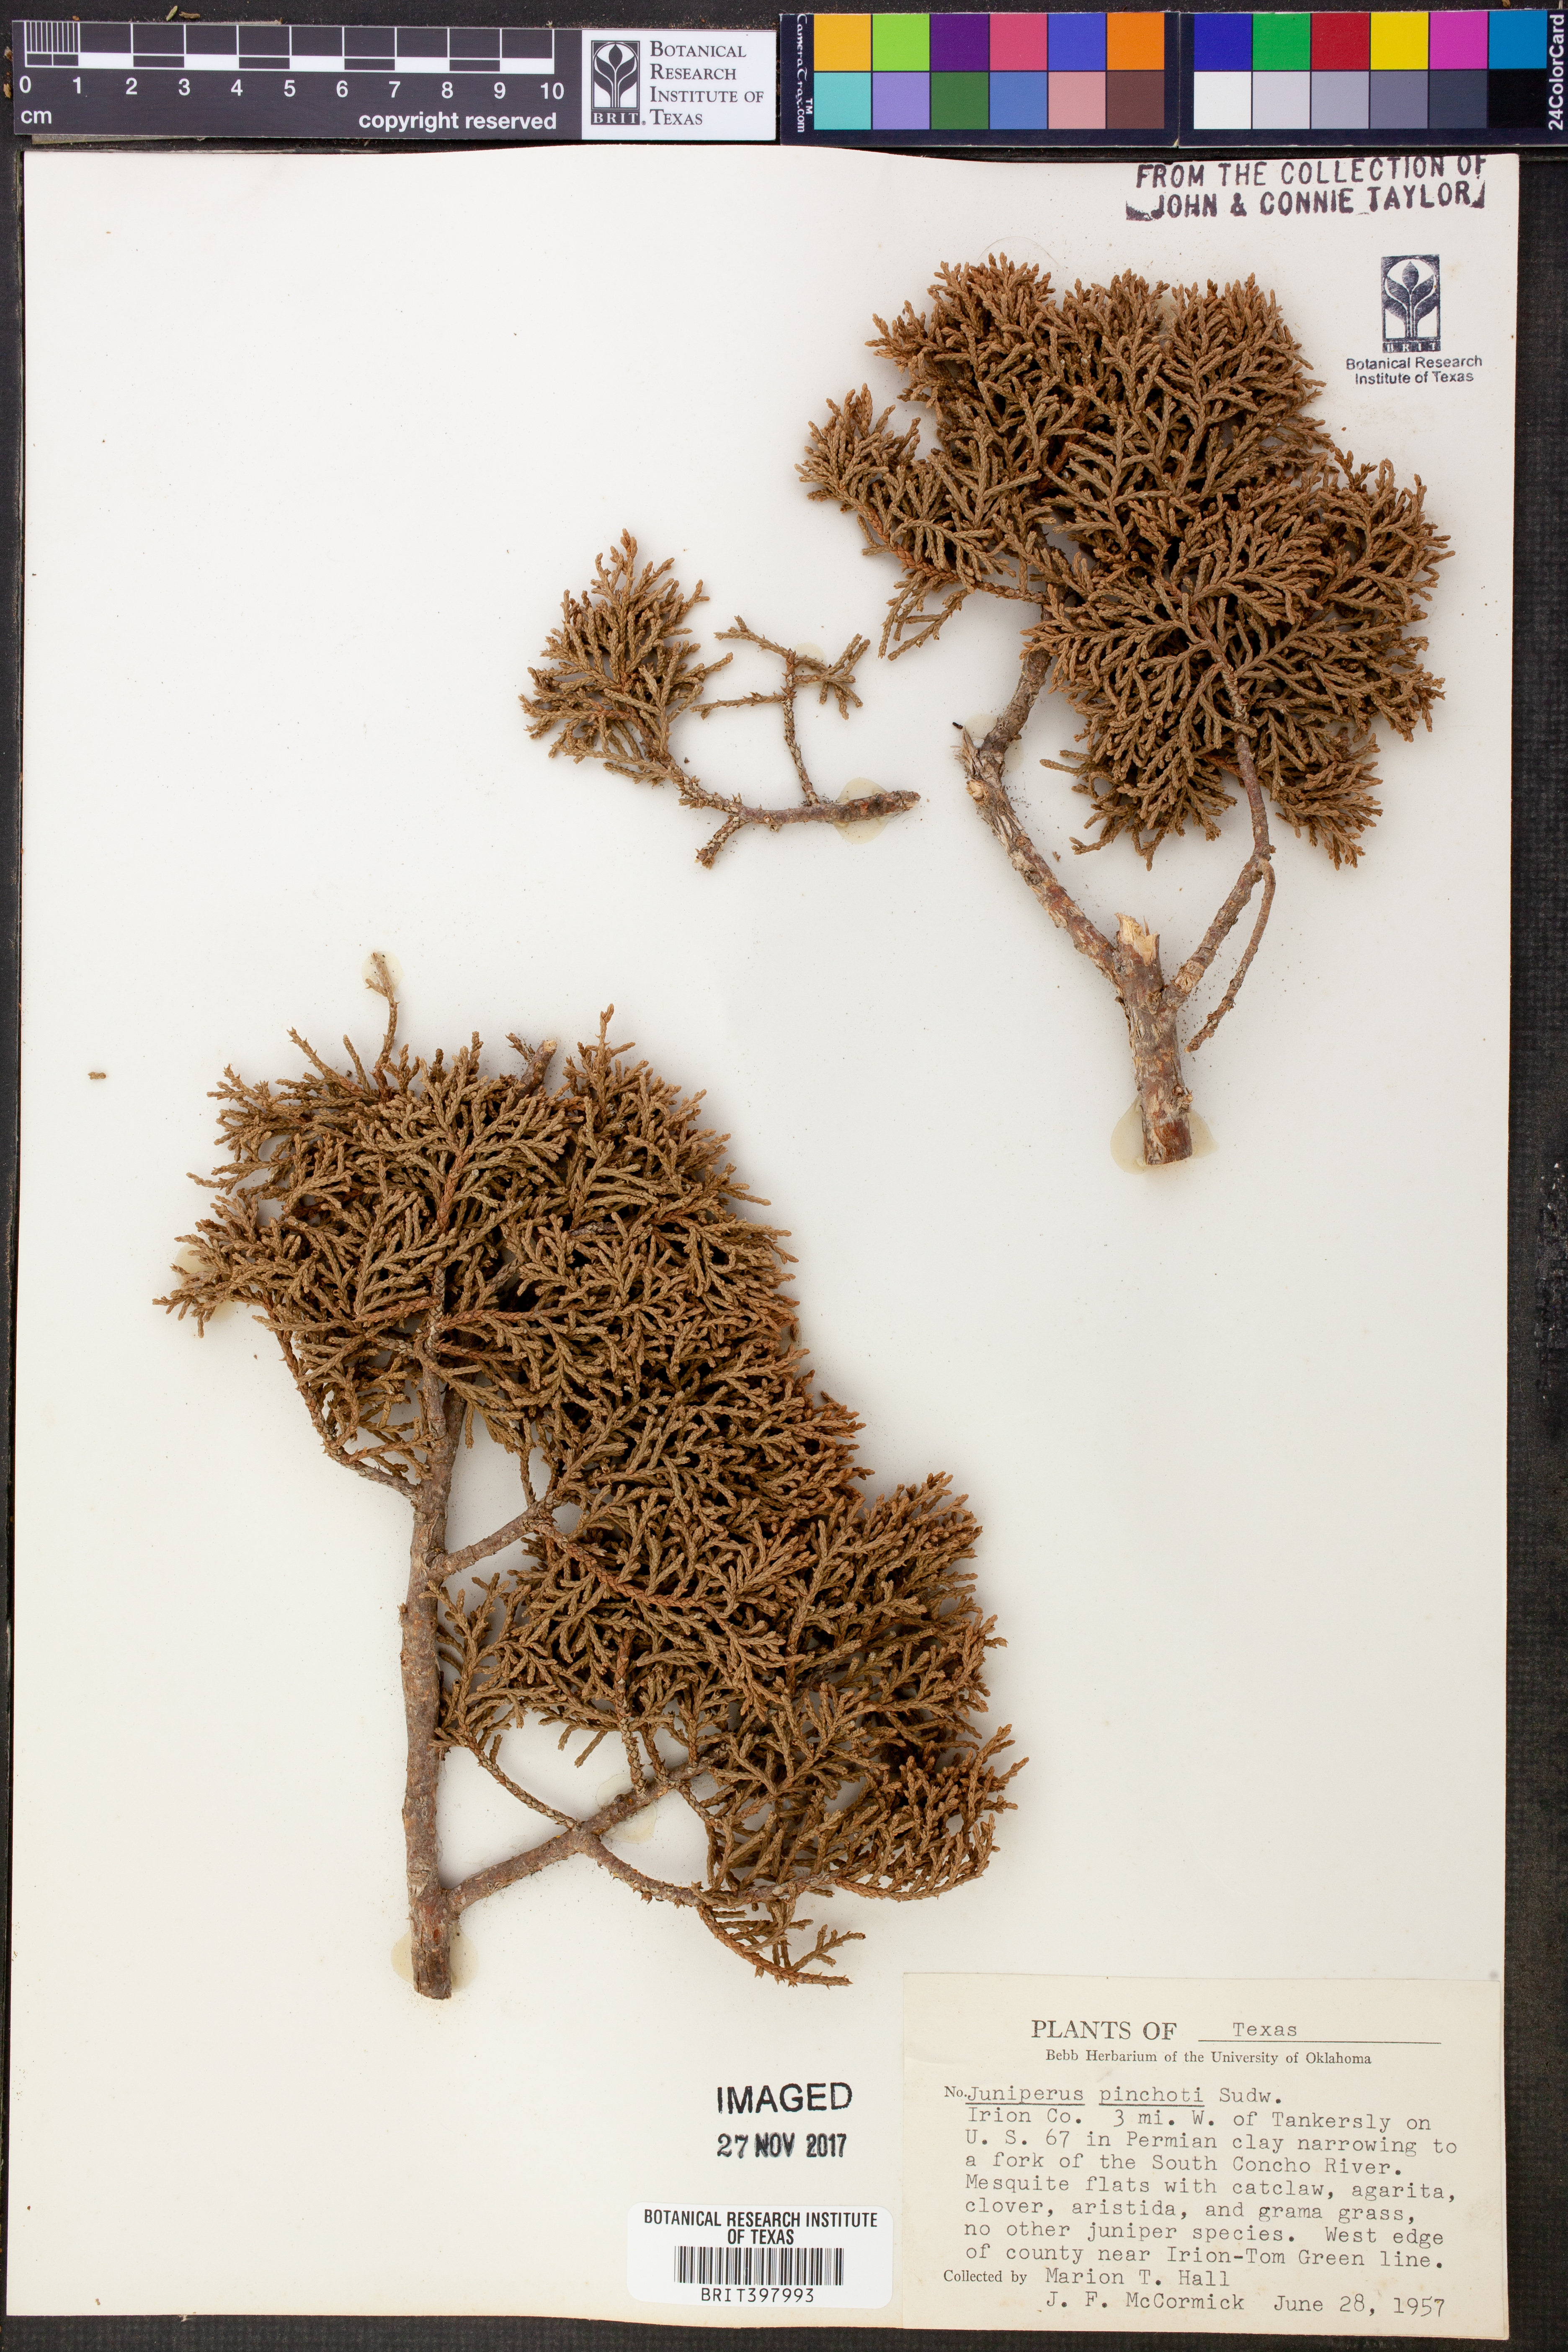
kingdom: Plantae
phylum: Tracheophyta
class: Pinopsida
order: Pinales
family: Cupressaceae
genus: Juniperus
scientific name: Juniperus pinchotii
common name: Pinchot juniper
